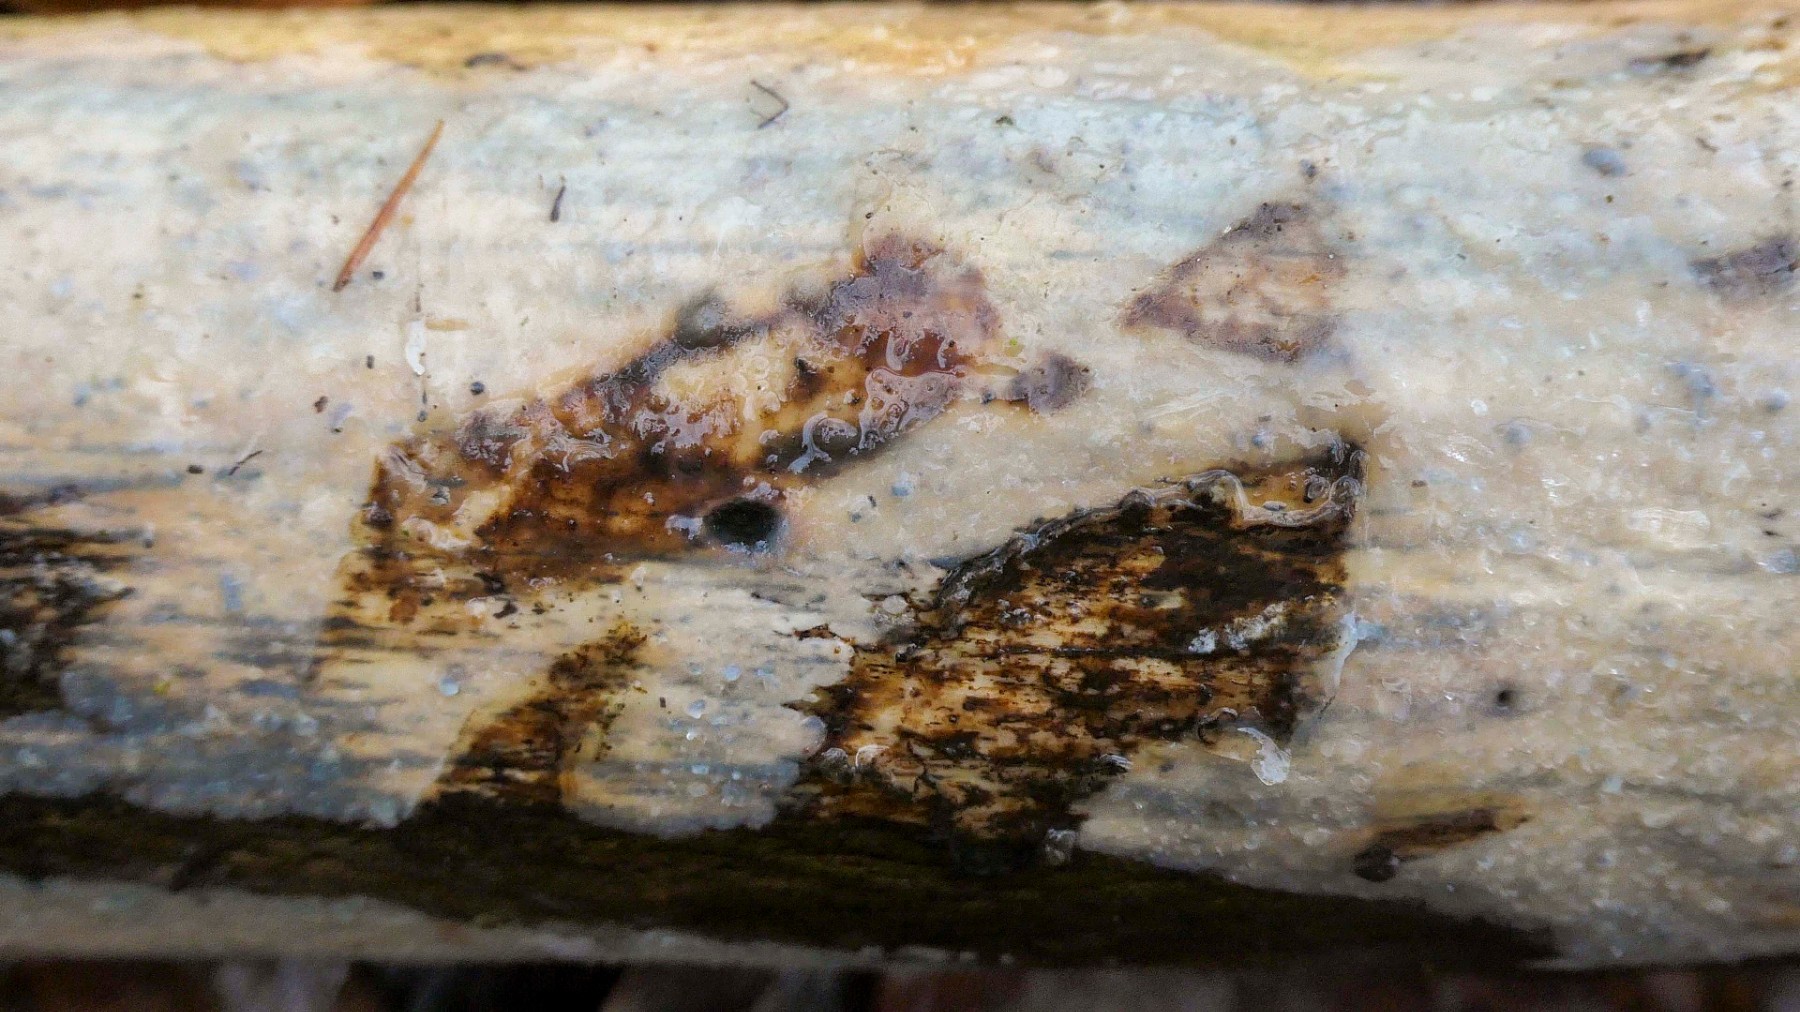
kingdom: Fungi
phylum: Basidiomycota
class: Tremellomycetes
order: Tremellales
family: Exidiaceae
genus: Exidiopsis
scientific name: Exidiopsis effusa
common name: smuk bævrehinde
